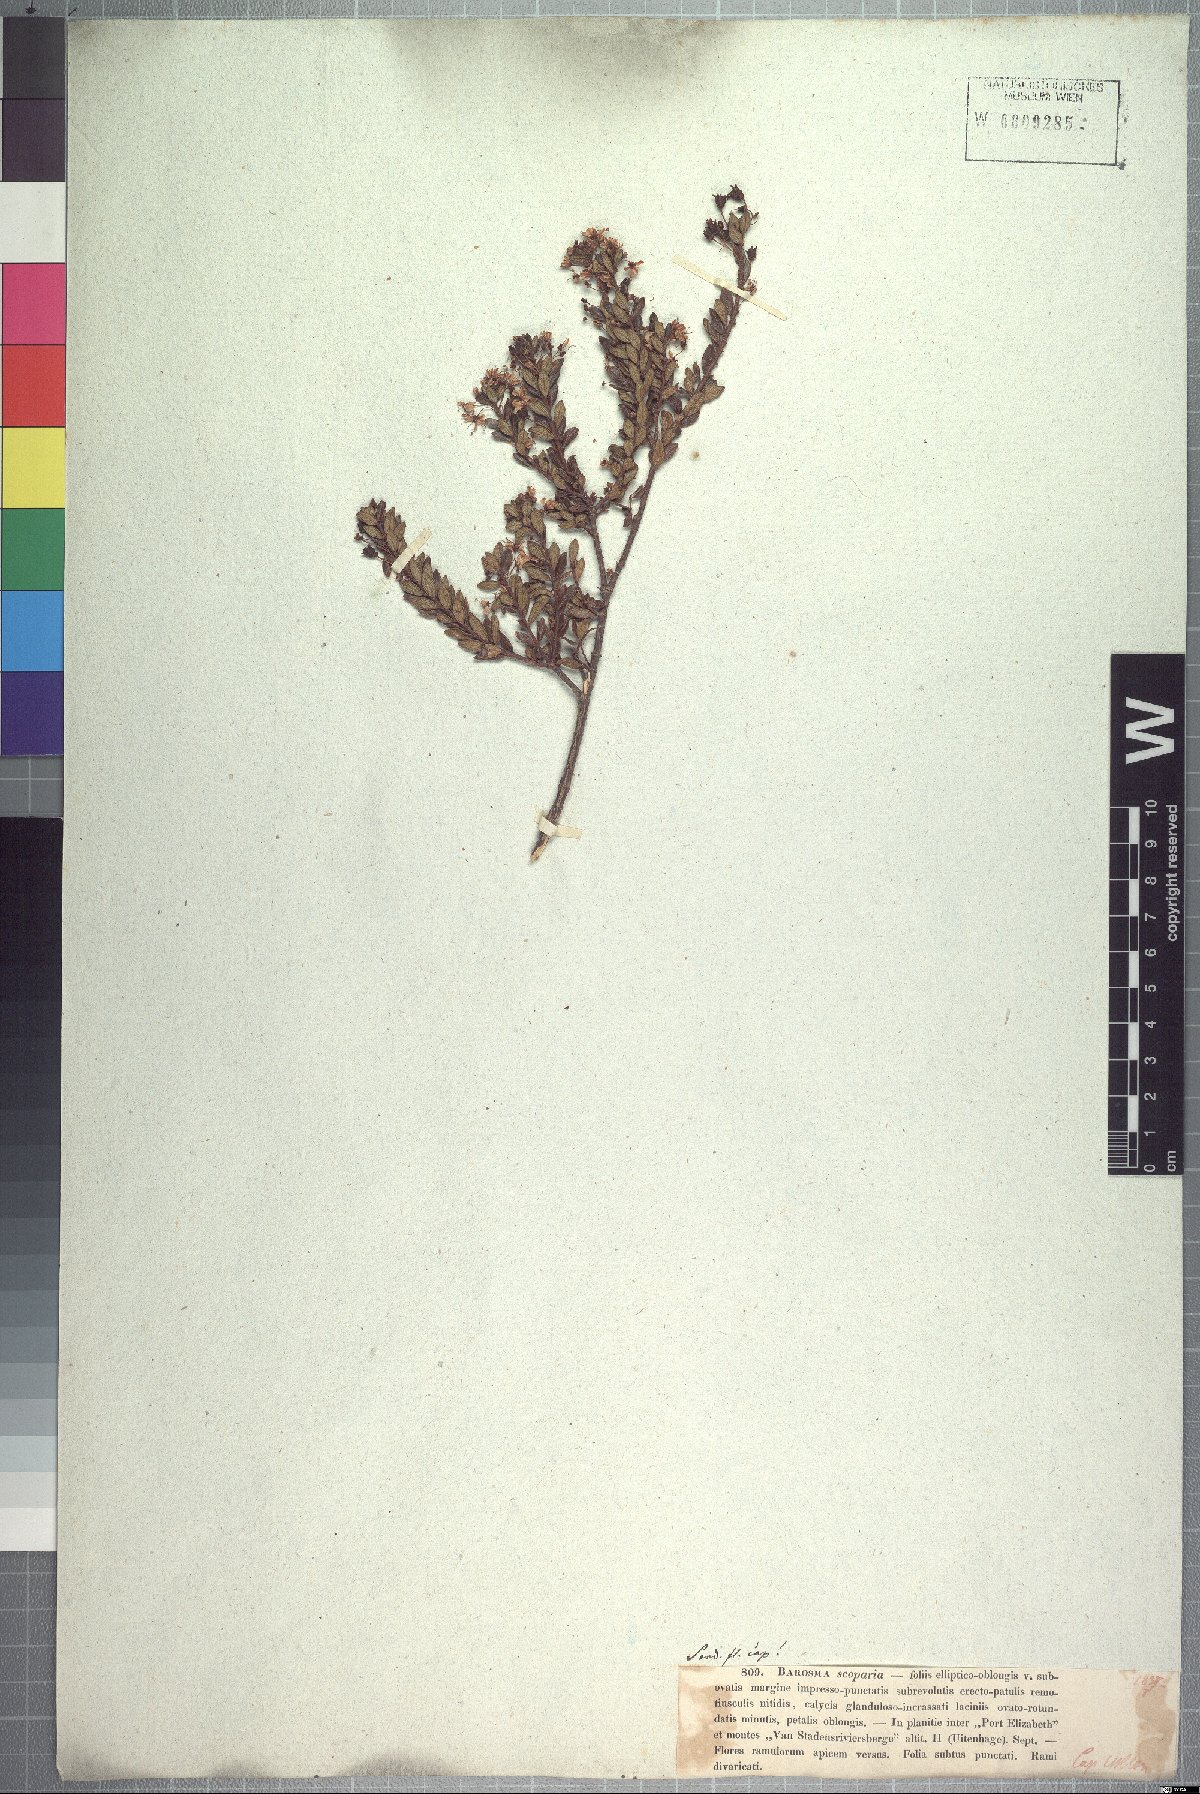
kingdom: Plantae
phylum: Tracheophyta
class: Magnoliopsida
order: Sapindales
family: Rutaceae
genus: Agathosma
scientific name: Agathosma ovata
